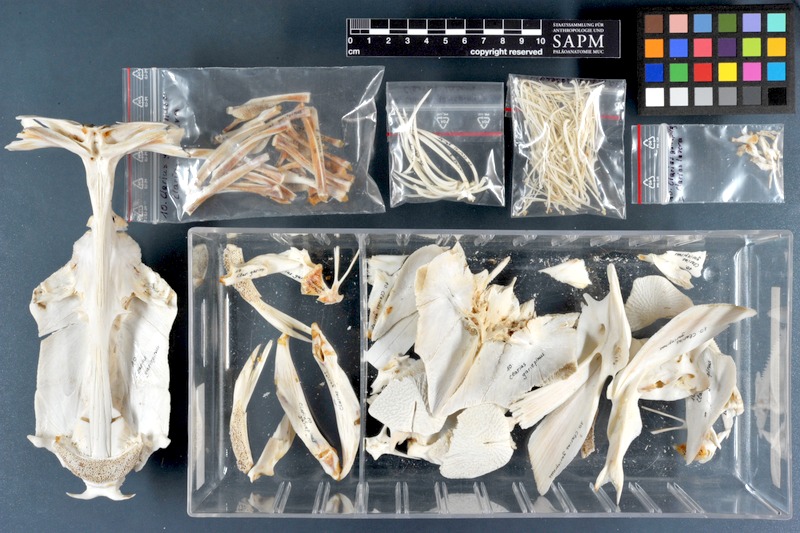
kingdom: Animalia
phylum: Chordata
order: Siluriformes
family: Clariidae
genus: Clarias
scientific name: Clarias gariepinus
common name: African catfish
